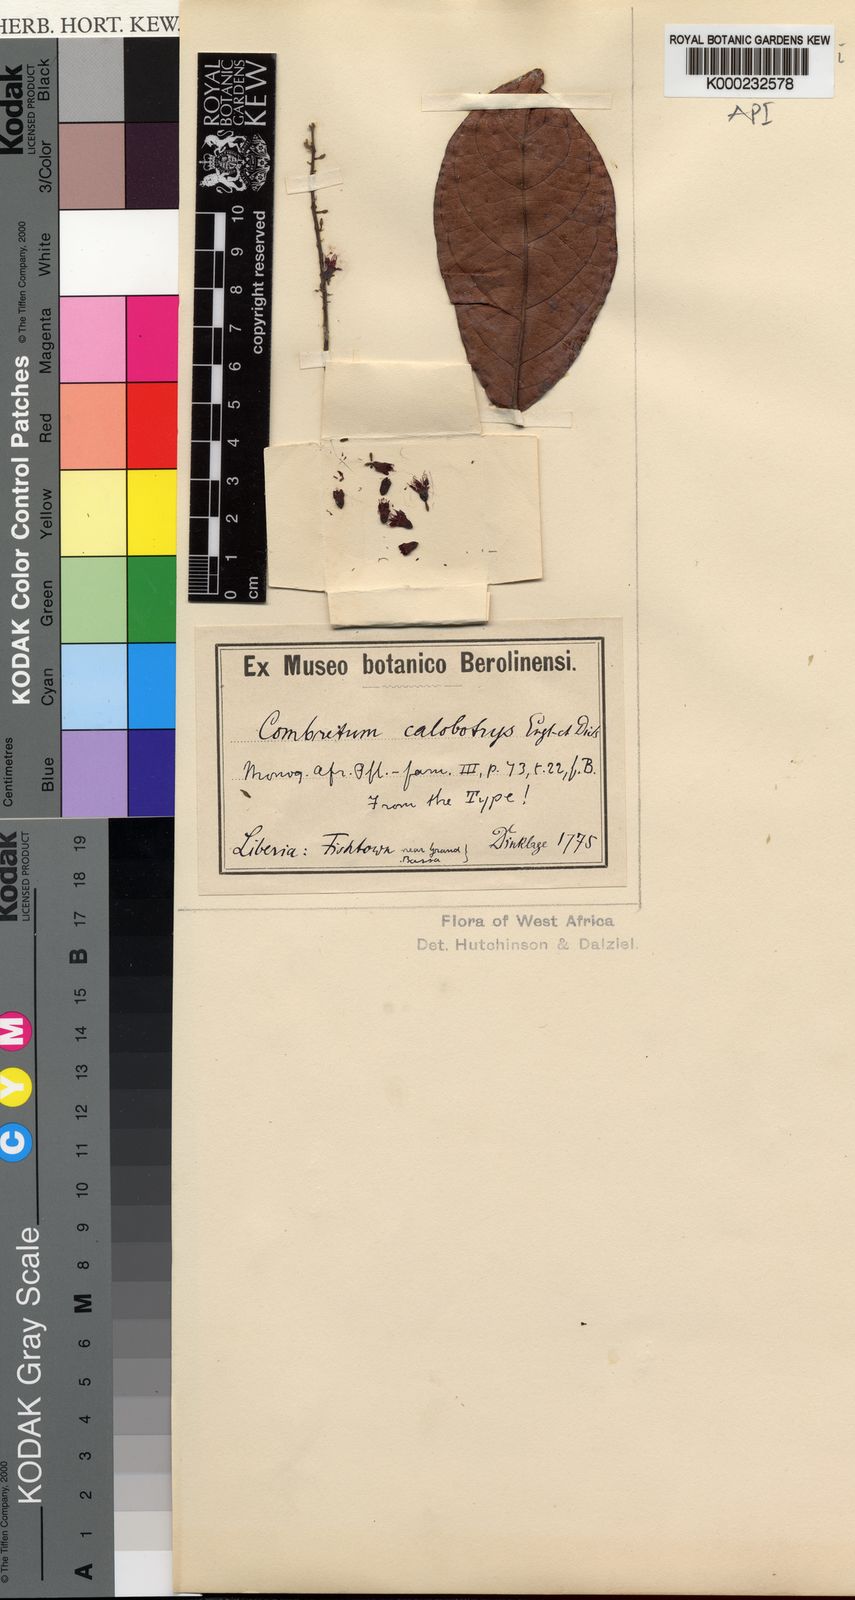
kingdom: Plantae
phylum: Tracheophyta
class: Magnoliopsida
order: Myrtales
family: Combretaceae
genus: Combretum
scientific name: Combretum mannii
